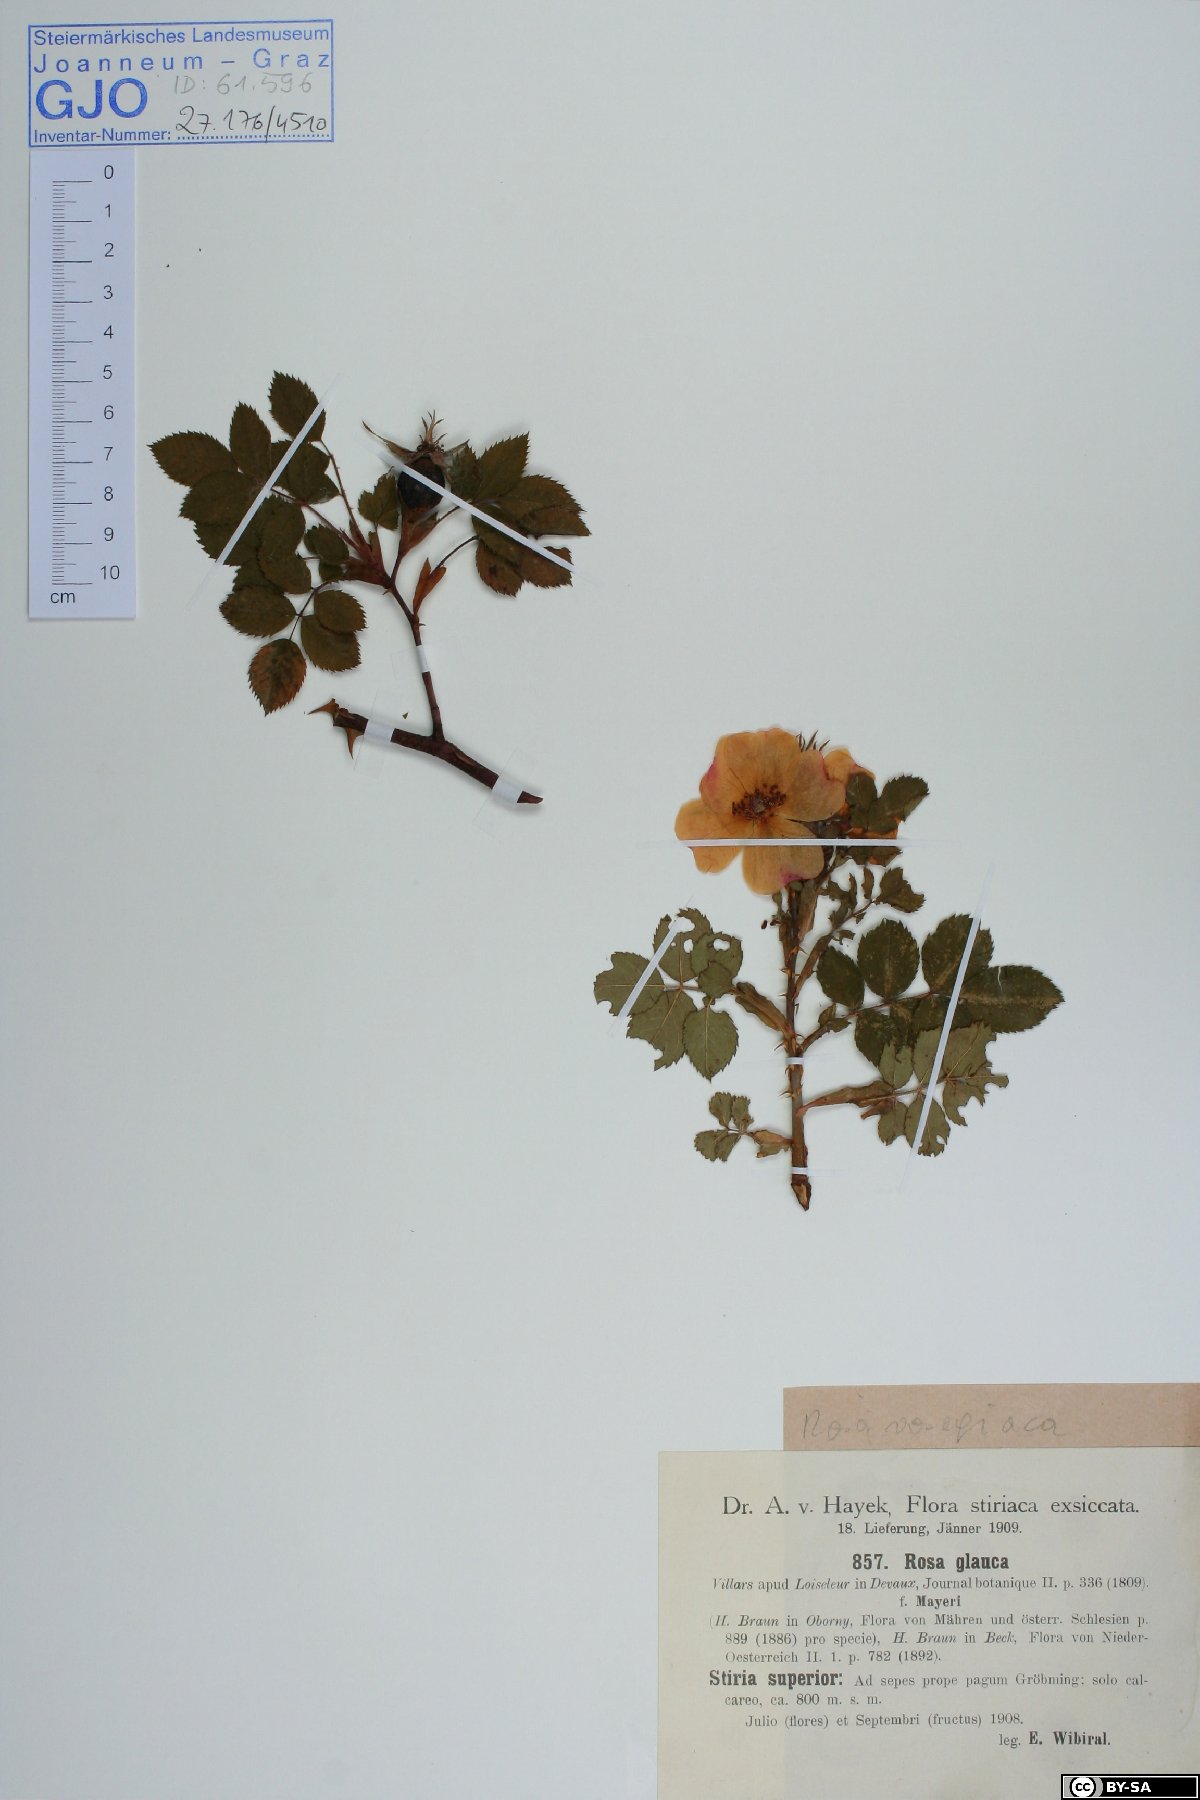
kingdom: Plantae
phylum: Tracheophyta
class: Magnoliopsida
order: Rosales
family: Rosaceae
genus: Rosa
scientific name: Rosa vosagiaca
